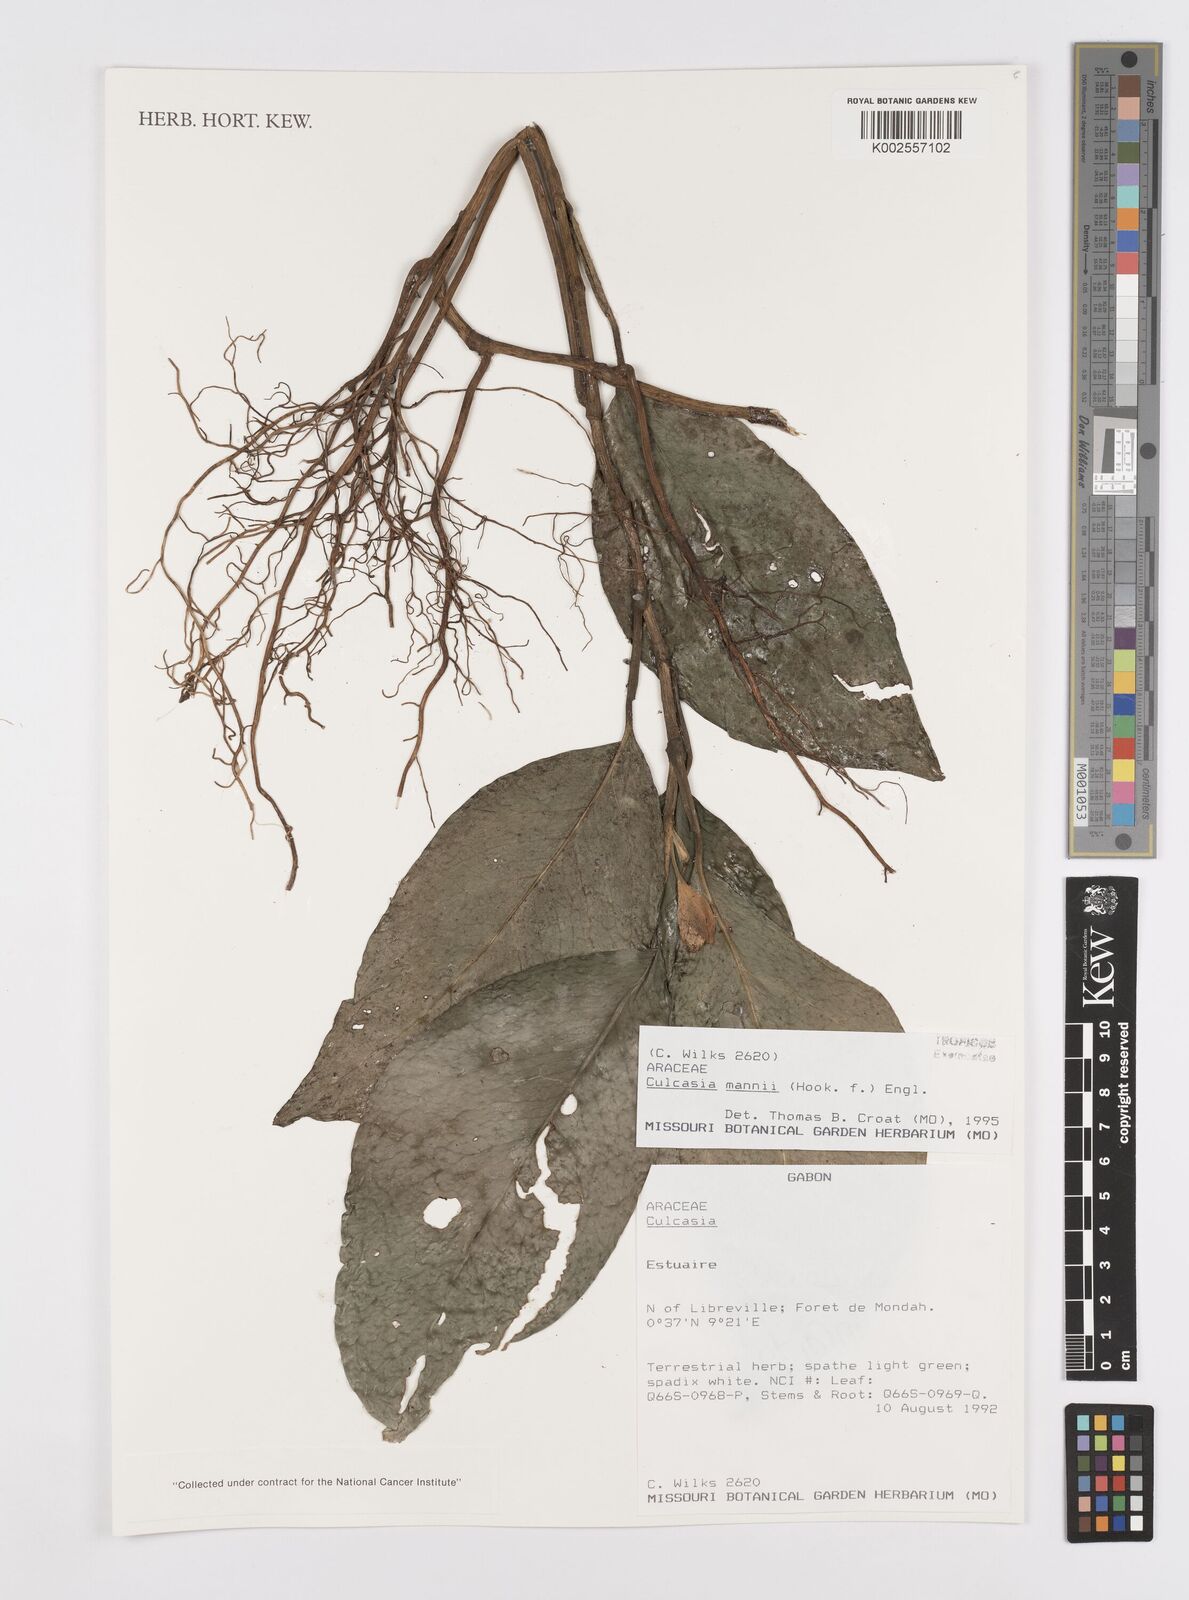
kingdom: Plantae
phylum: Tracheophyta
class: Liliopsida
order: Alismatales
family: Araceae
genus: Culcasia
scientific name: Culcasia mannii
